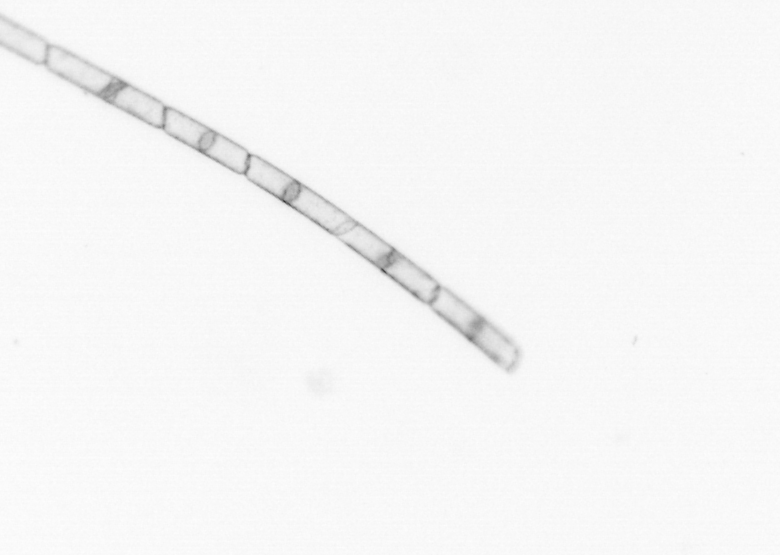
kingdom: Chromista
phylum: Ochrophyta
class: Bacillariophyceae
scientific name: Bacillariophyceae
